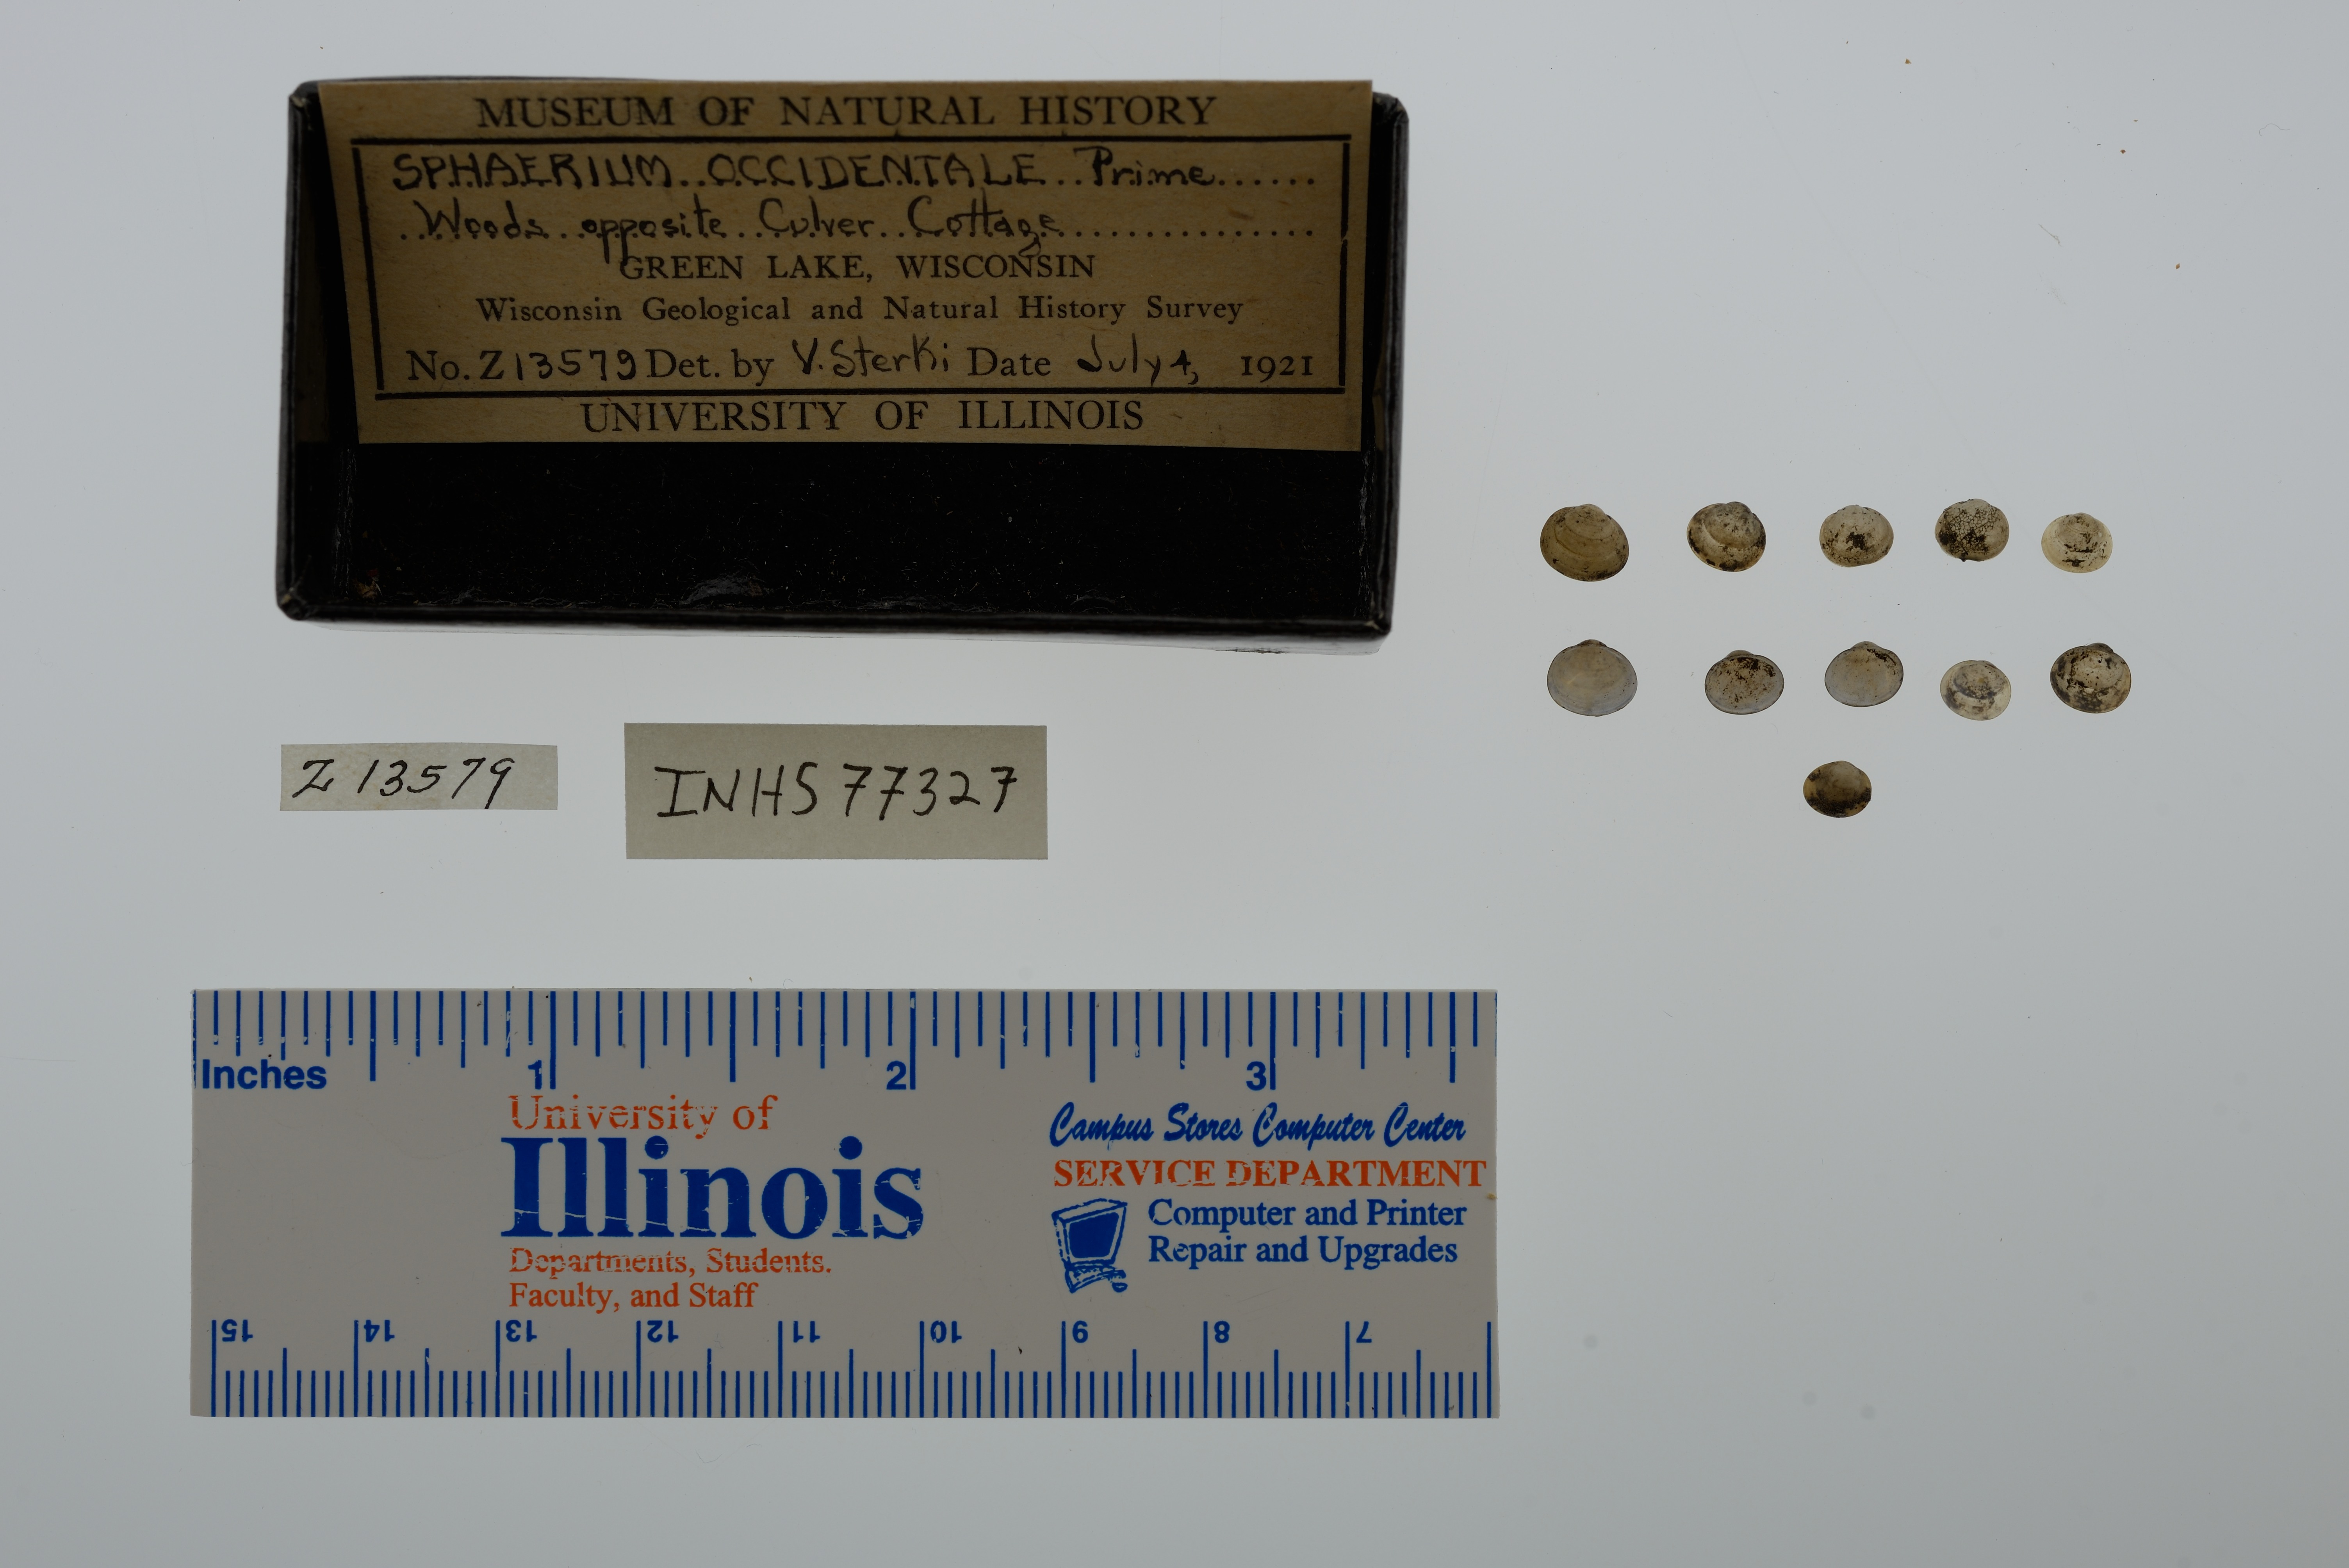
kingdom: Animalia
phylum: Mollusca
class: Bivalvia
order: Sphaeriida
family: Sphaeriidae
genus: Sphaerium
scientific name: Sphaerium occidentale
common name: Herrington fingernailclam
